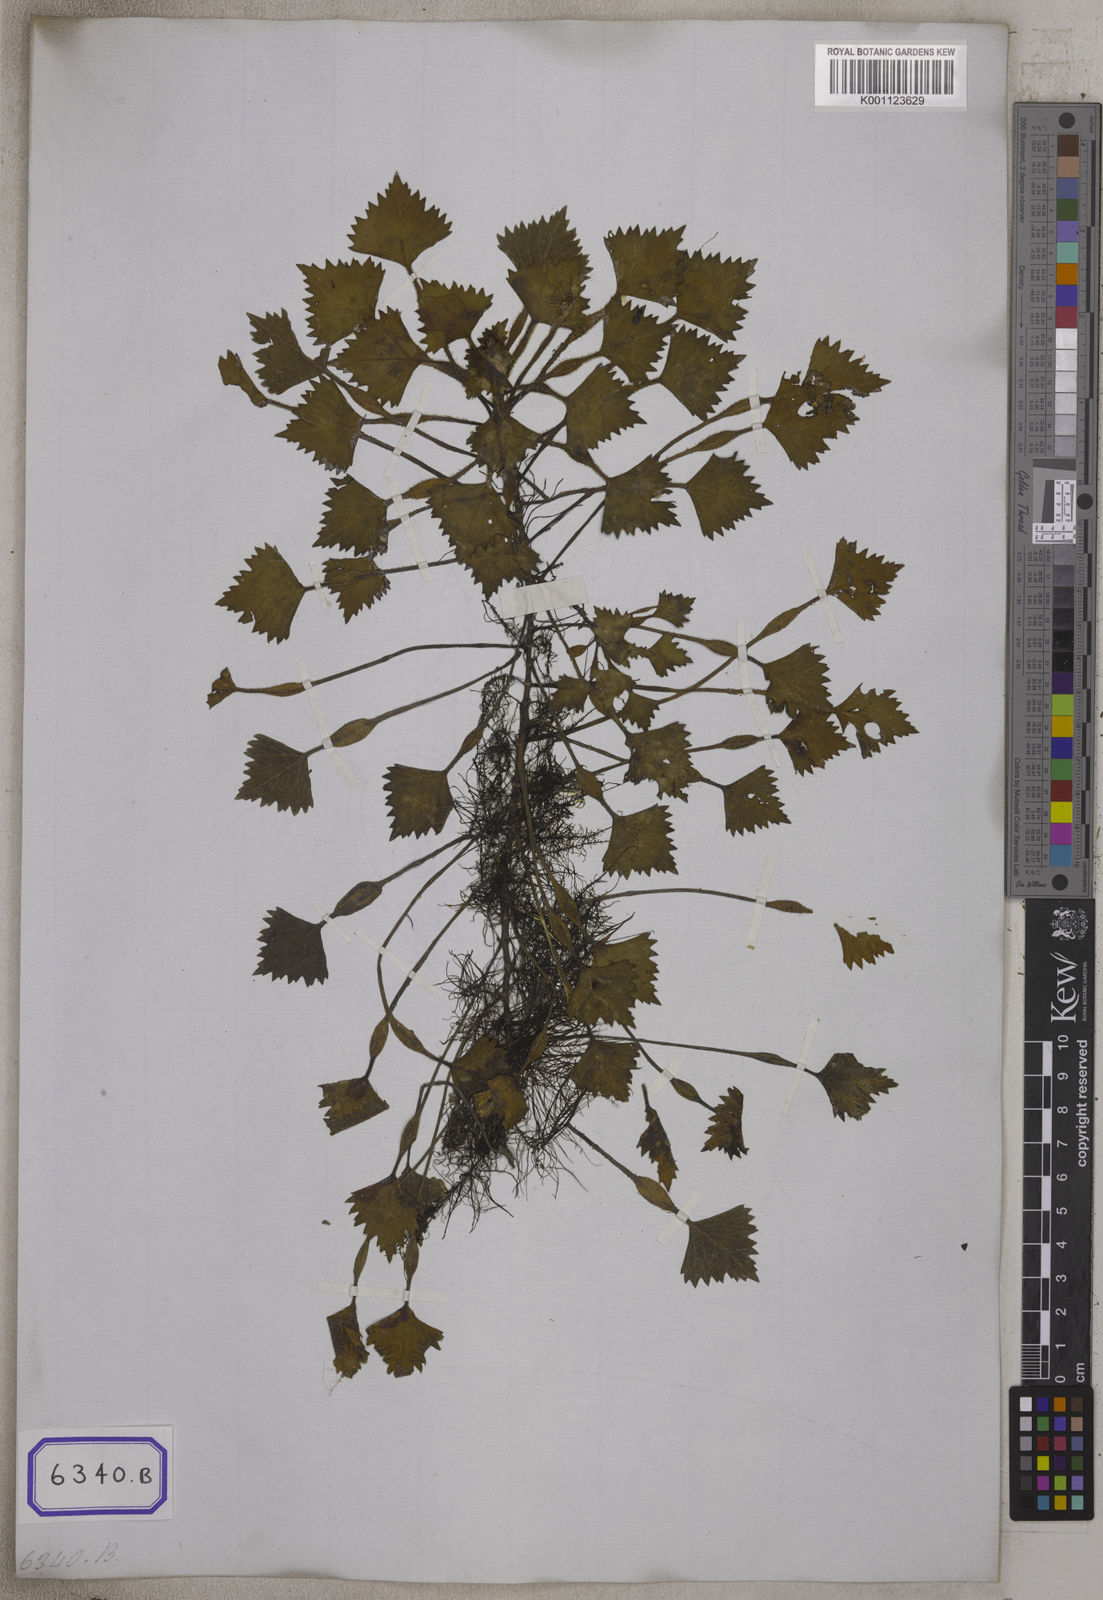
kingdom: Plantae
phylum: Tracheophyta
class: Magnoliopsida
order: Myrtales
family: Lythraceae
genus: Trapa
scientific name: Trapa
